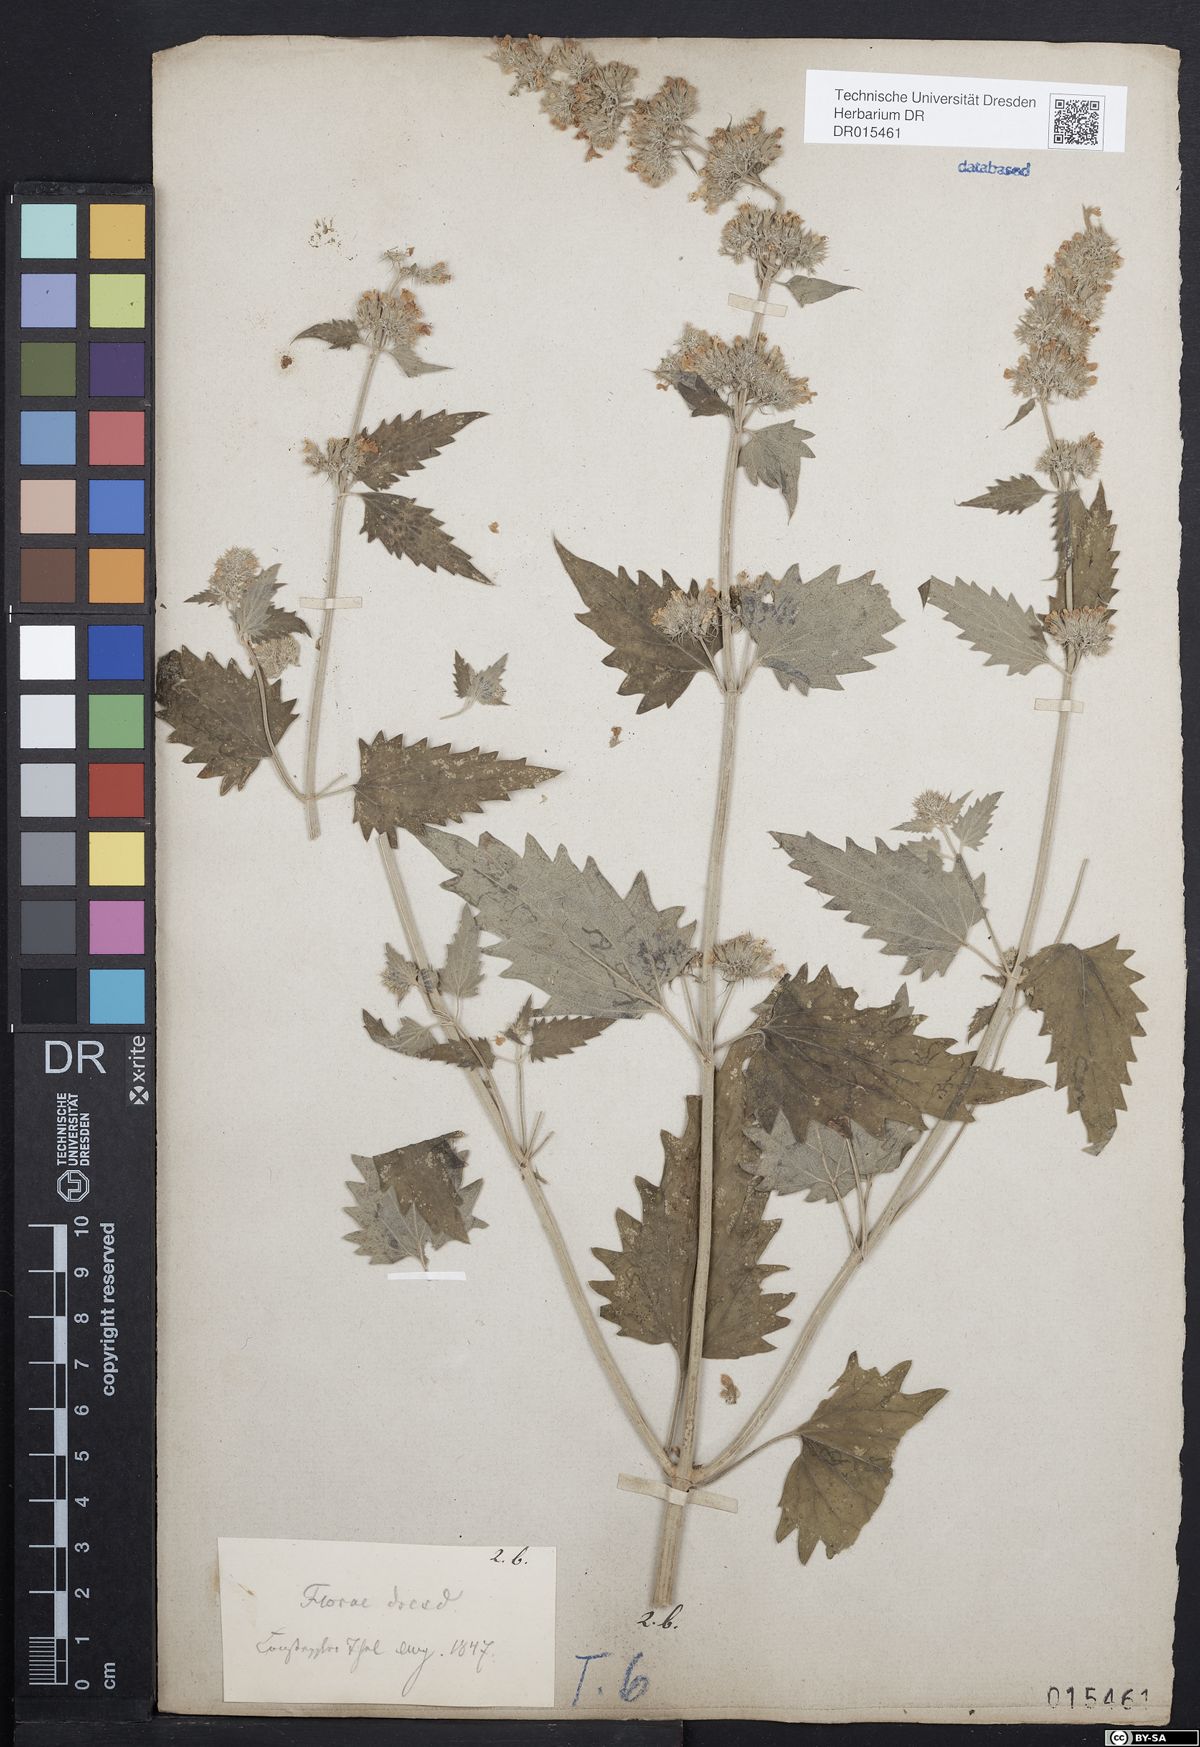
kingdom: Plantae
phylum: Tracheophyta
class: Magnoliopsida
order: Lamiales
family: Lamiaceae
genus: Nepeta
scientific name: Nepeta cataria
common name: Catnip
